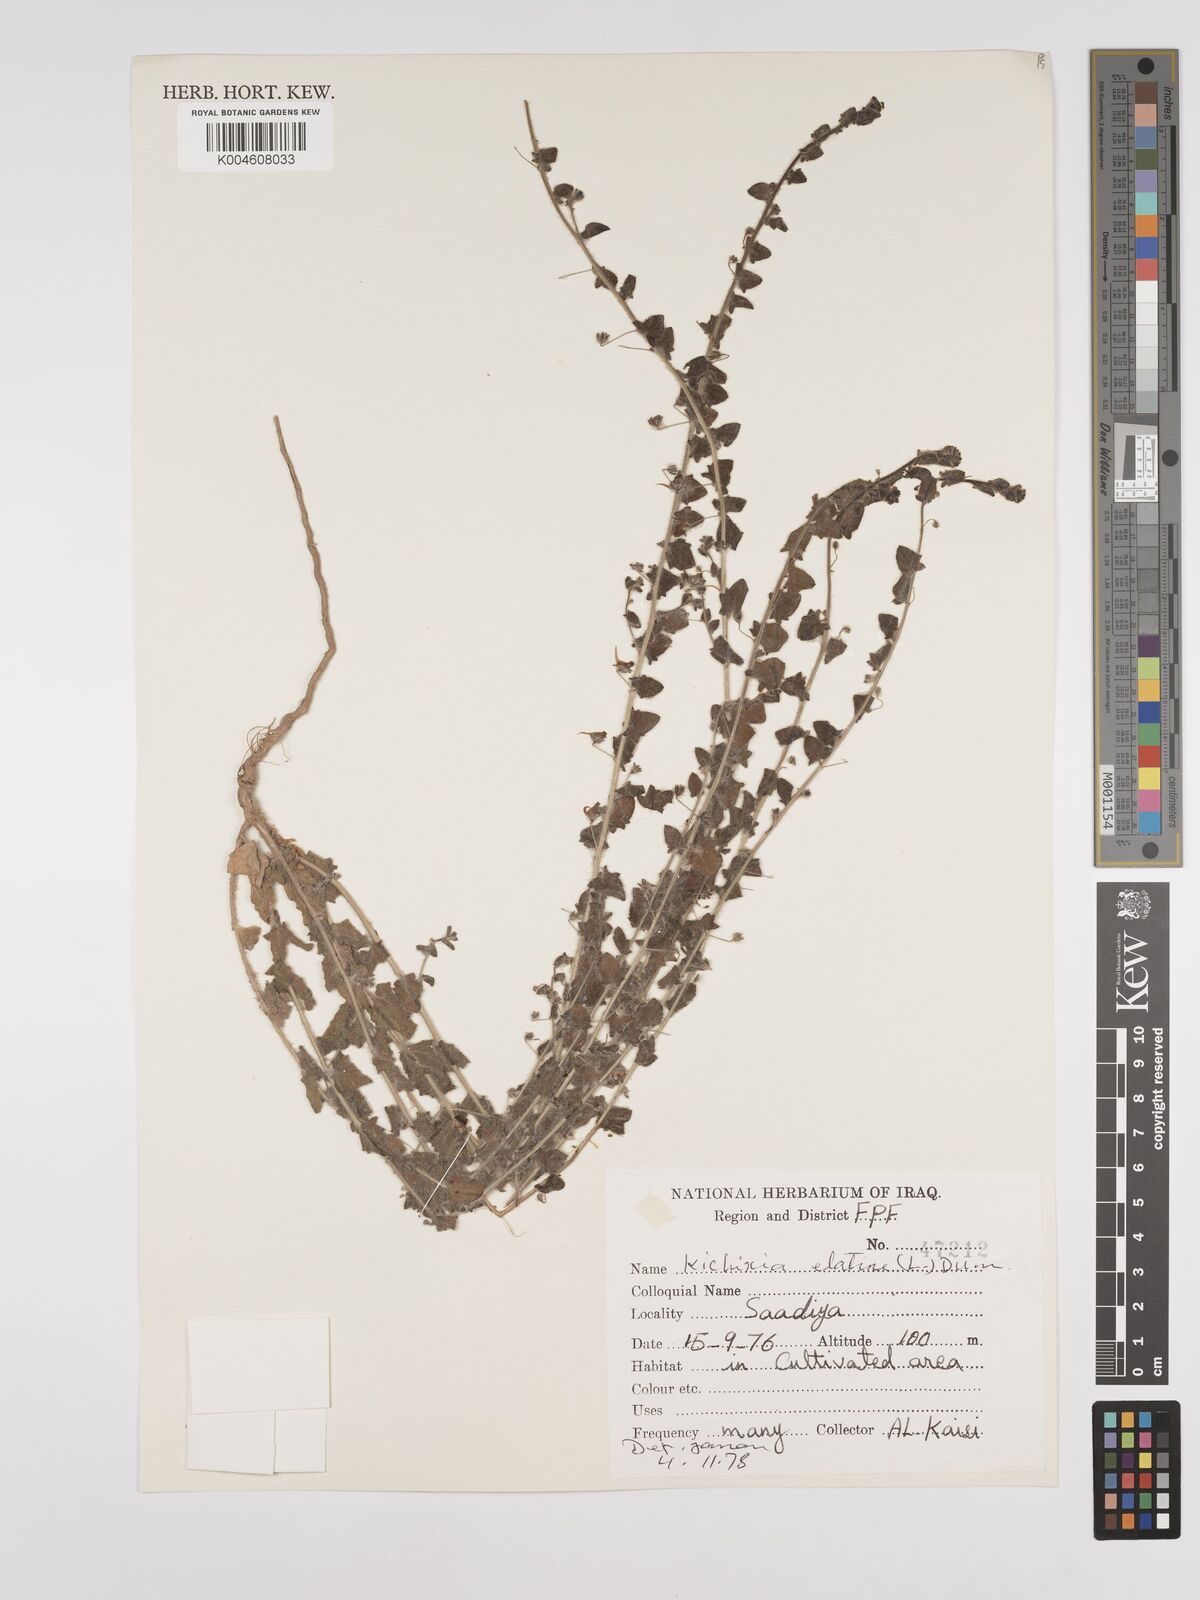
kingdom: Plantae
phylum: Tracheophyta
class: Magnoliopsida
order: Lamiales
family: Plantaginaceae
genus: Kickxia
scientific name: Kickxia elatine
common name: Sharp-leaved fluellen
